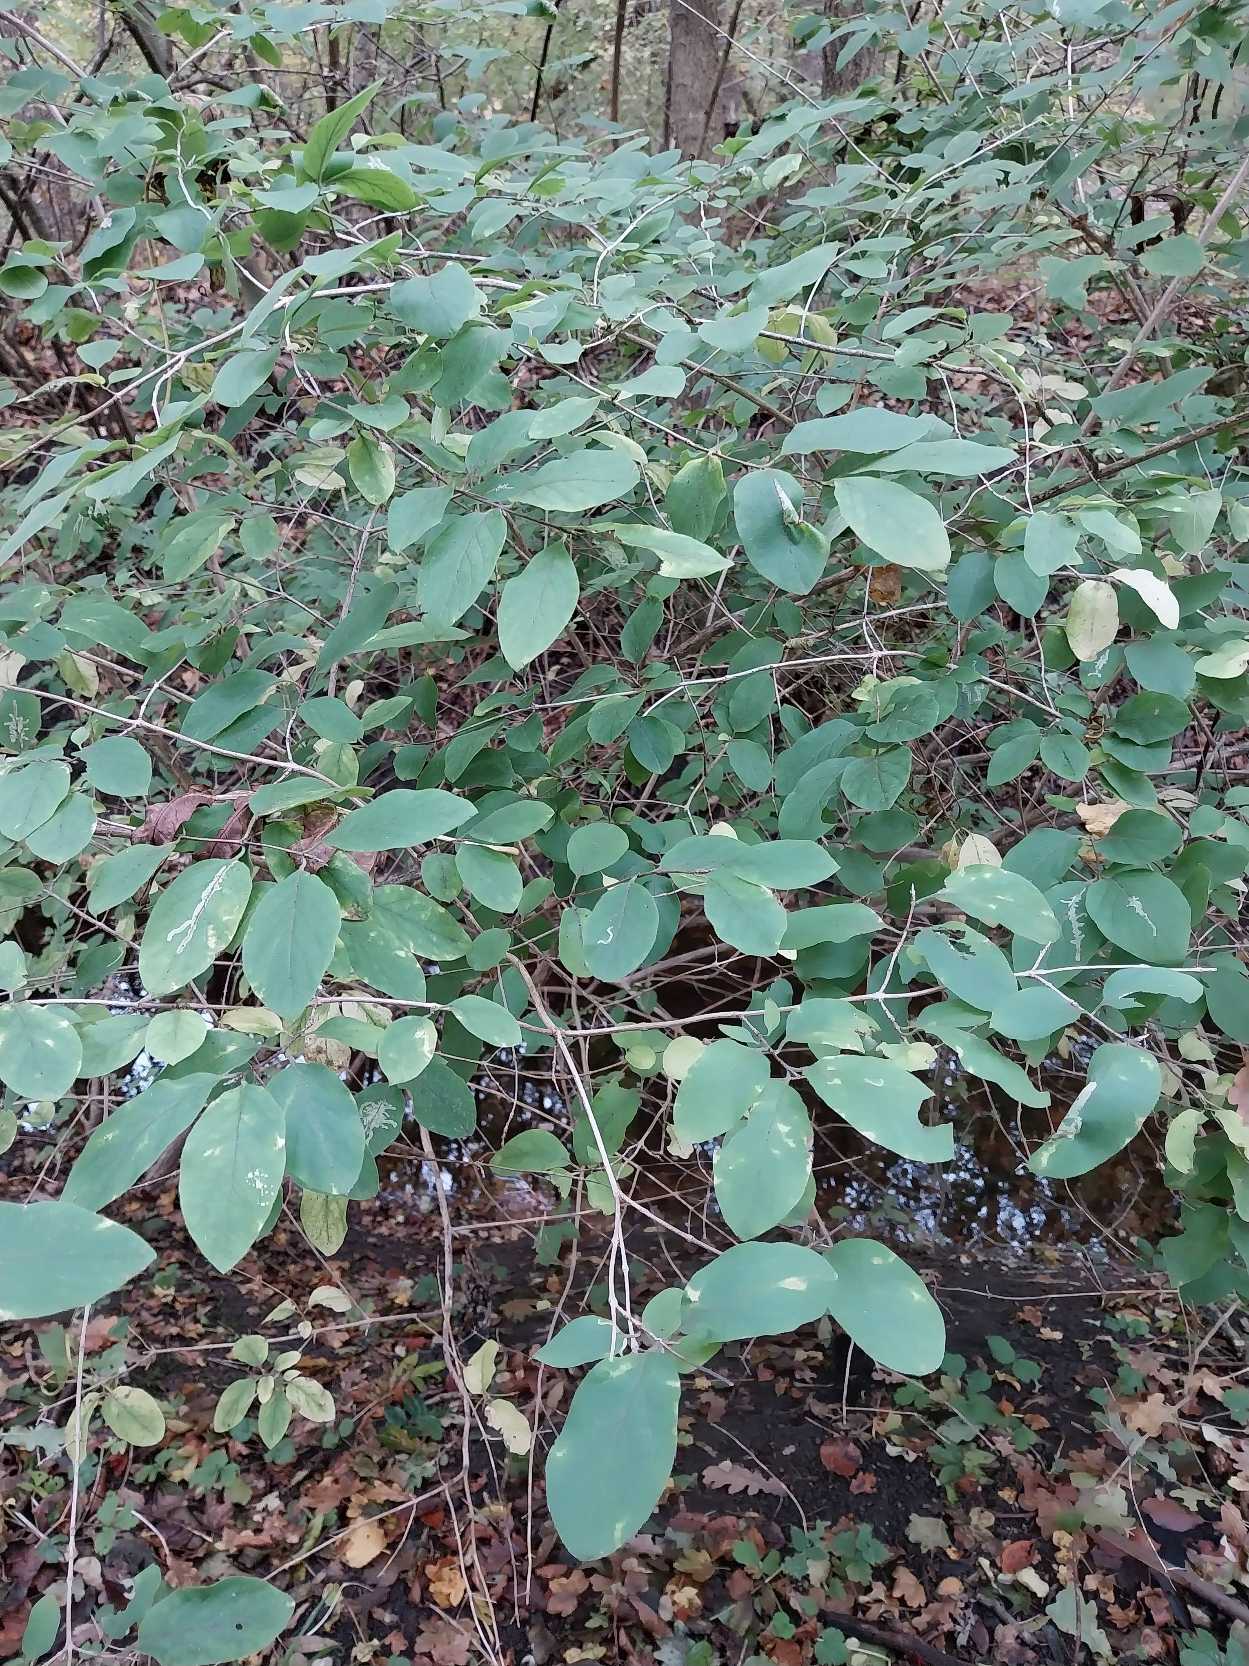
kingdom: Plantae
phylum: Tracheophyta
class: Magnoliopsida
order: Dipsacales
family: Caprifoliaceae
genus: Lonicera
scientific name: Lonicera xylosteum
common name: Dunet gedeblad
